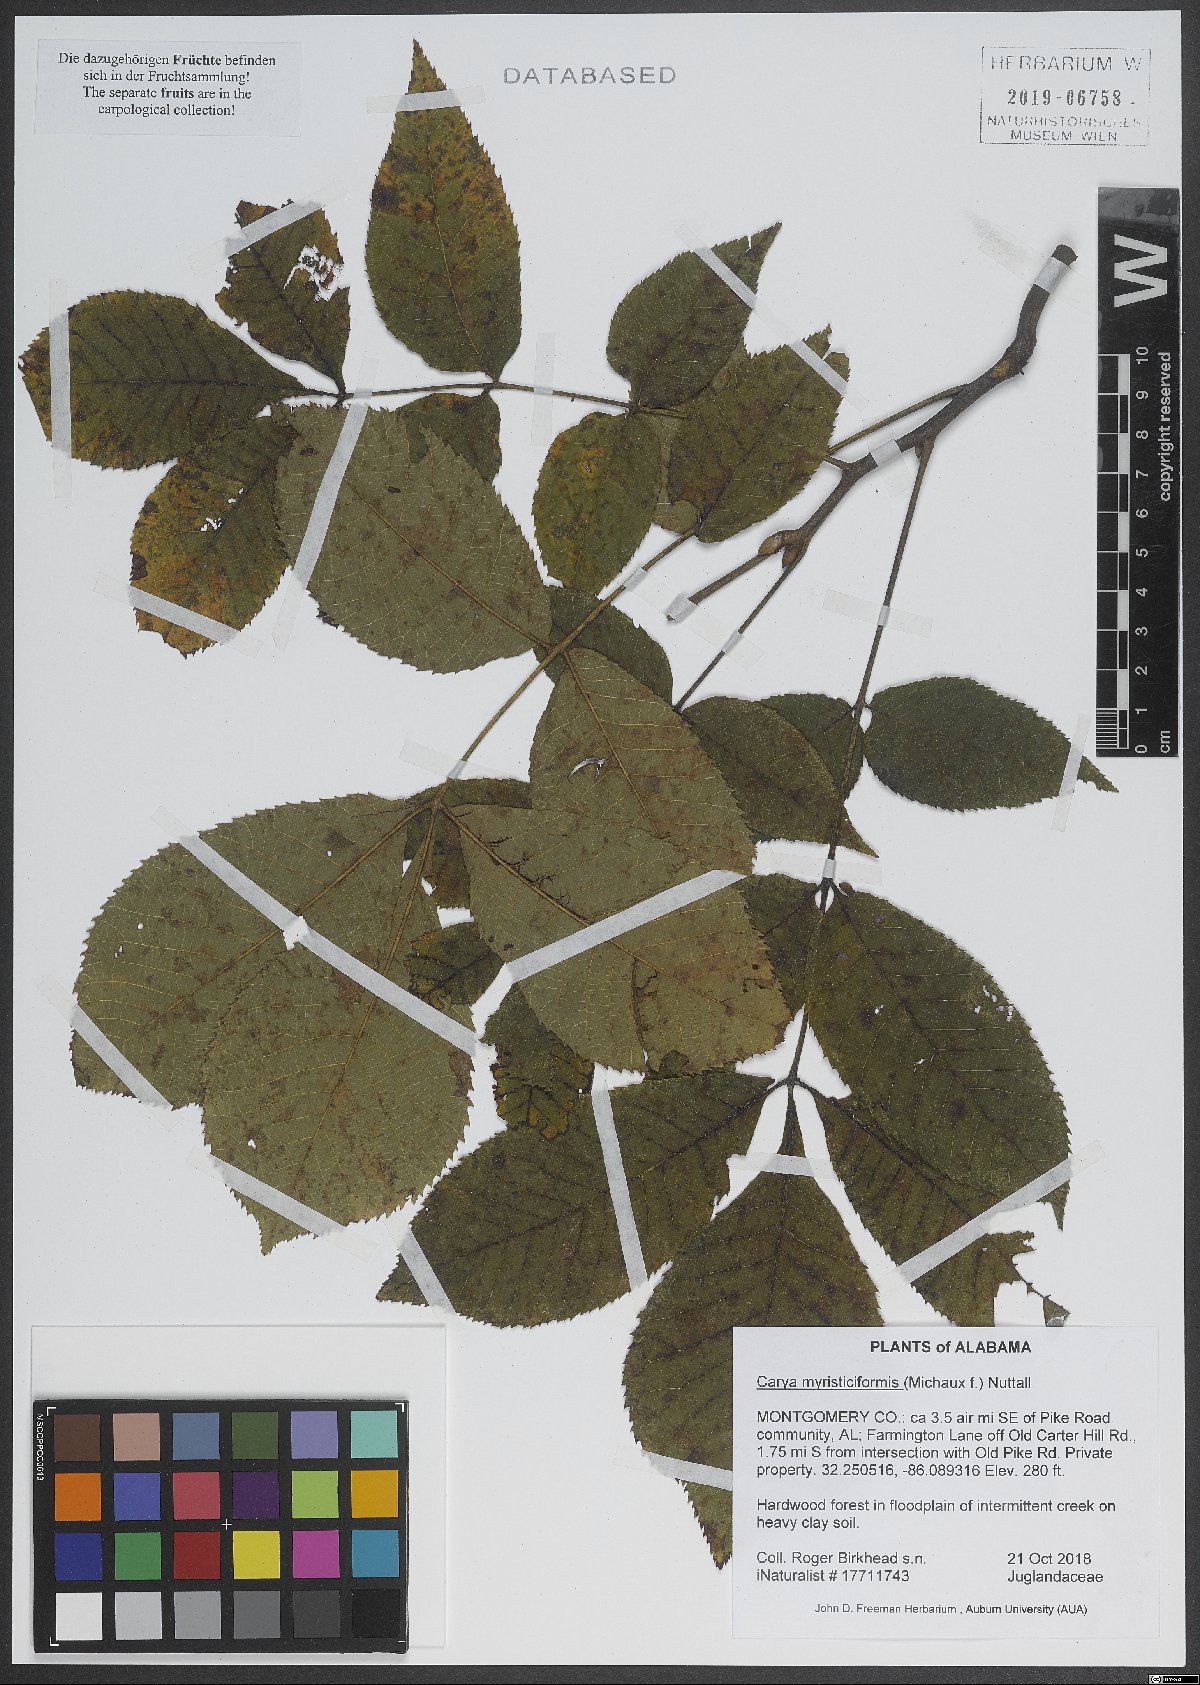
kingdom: Plantae
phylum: Tracheophyta
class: Magnoliopsida
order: Fagales
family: Juglandaceae
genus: Carya
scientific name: Carya myristiciformis
